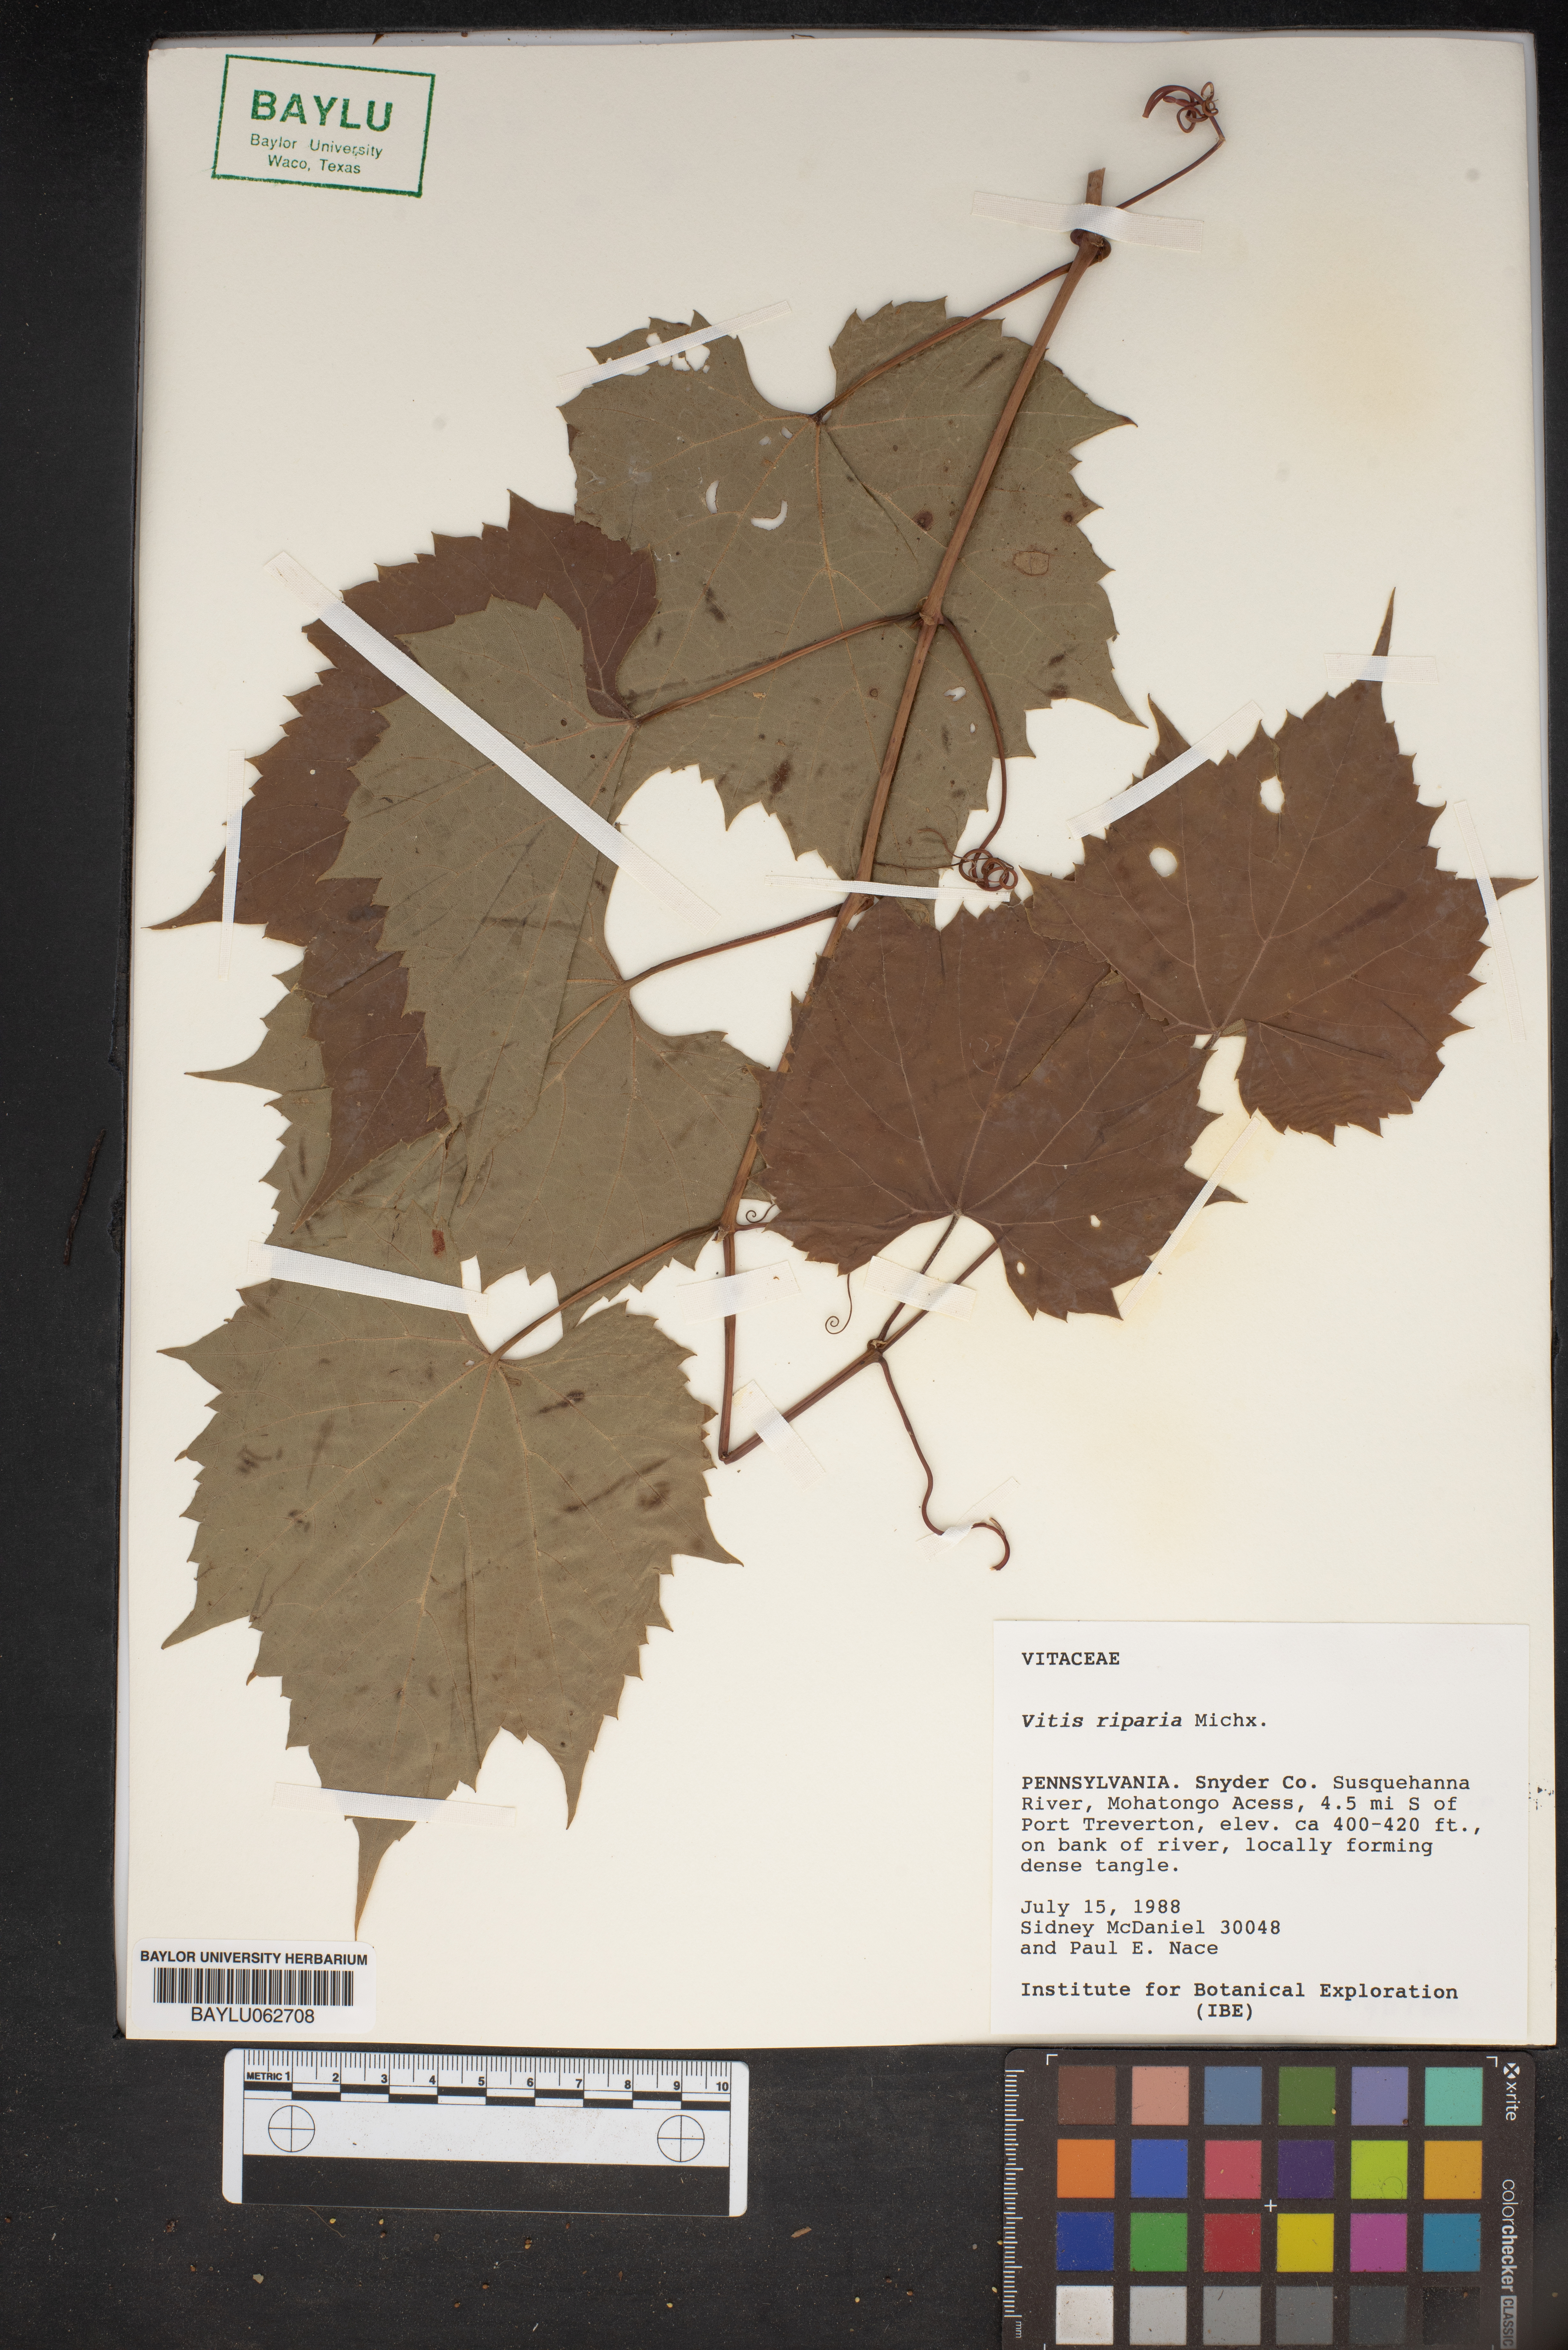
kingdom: Plantae
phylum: Tracheophyta
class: Magnoliopsida
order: Vitales
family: Vitaceae
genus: Vitis
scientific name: Vitis riparia
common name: Frost grape
